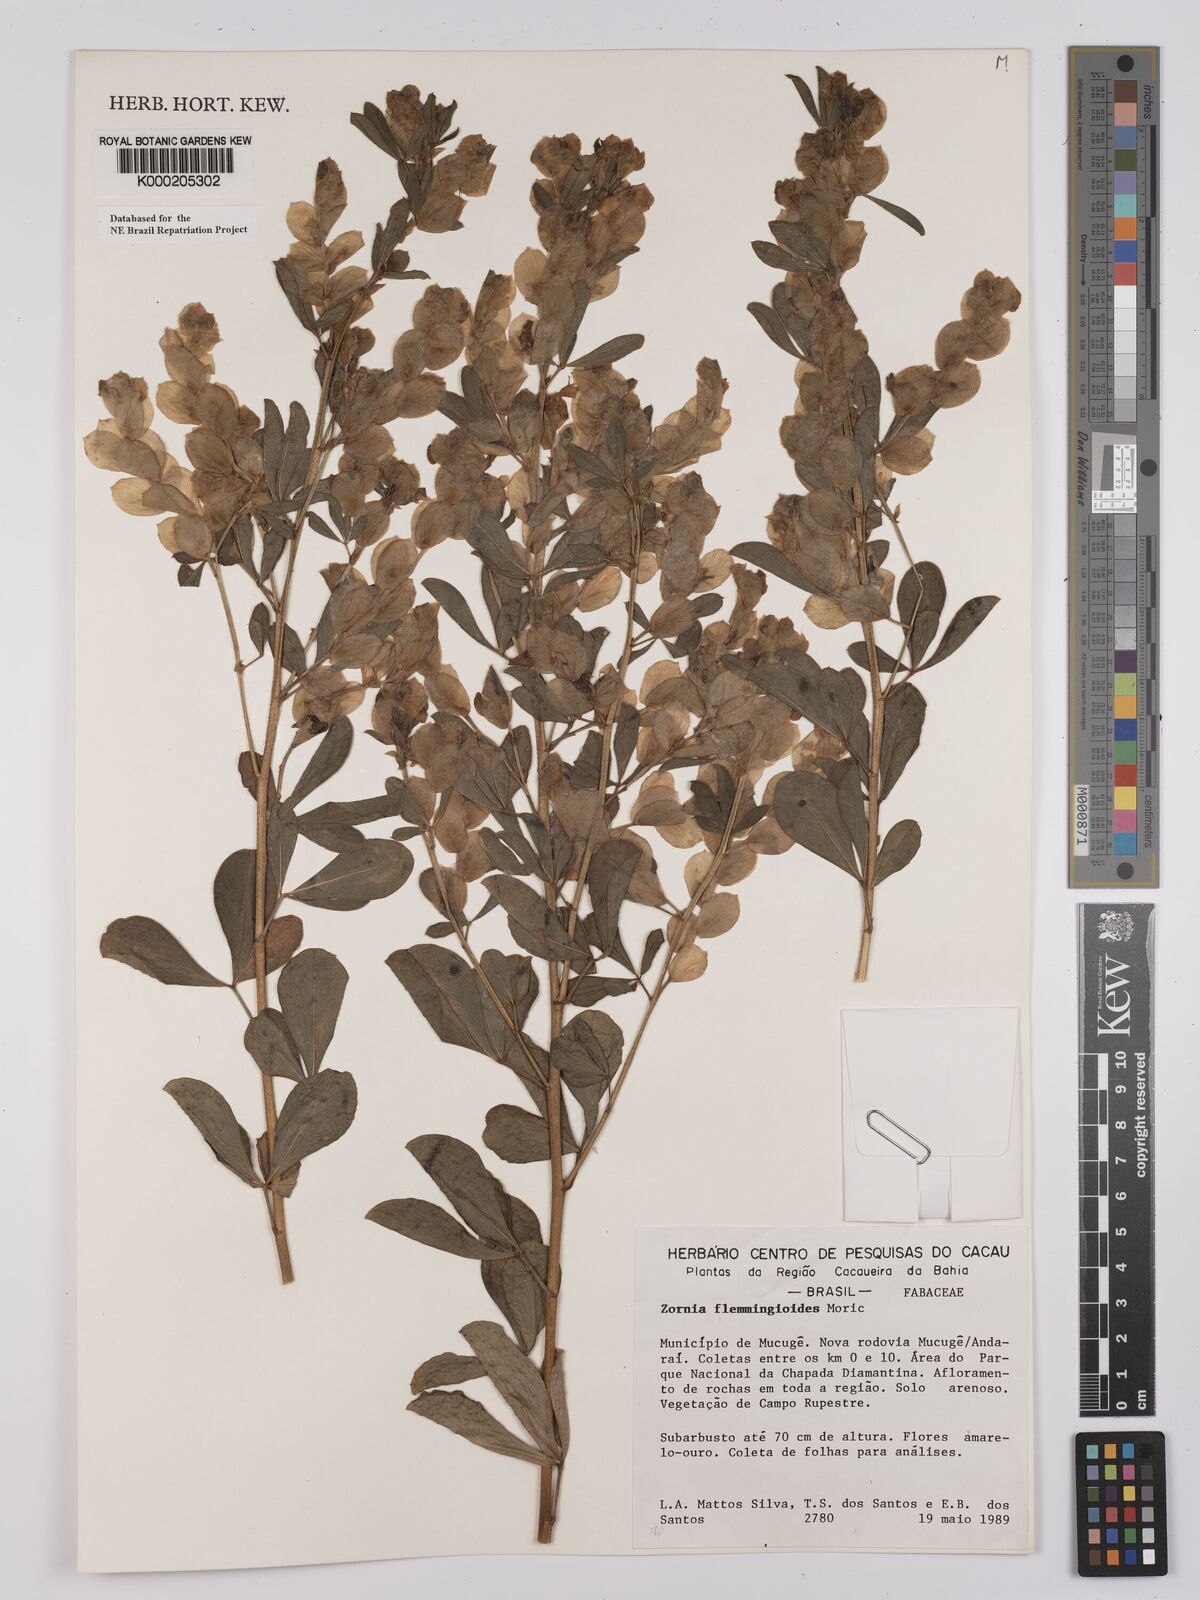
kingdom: Plantae
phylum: Tracheophyta
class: Magnoliopsida
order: Fabales
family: Fabaceae
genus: Zornia
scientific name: Zornia flemmingioides
